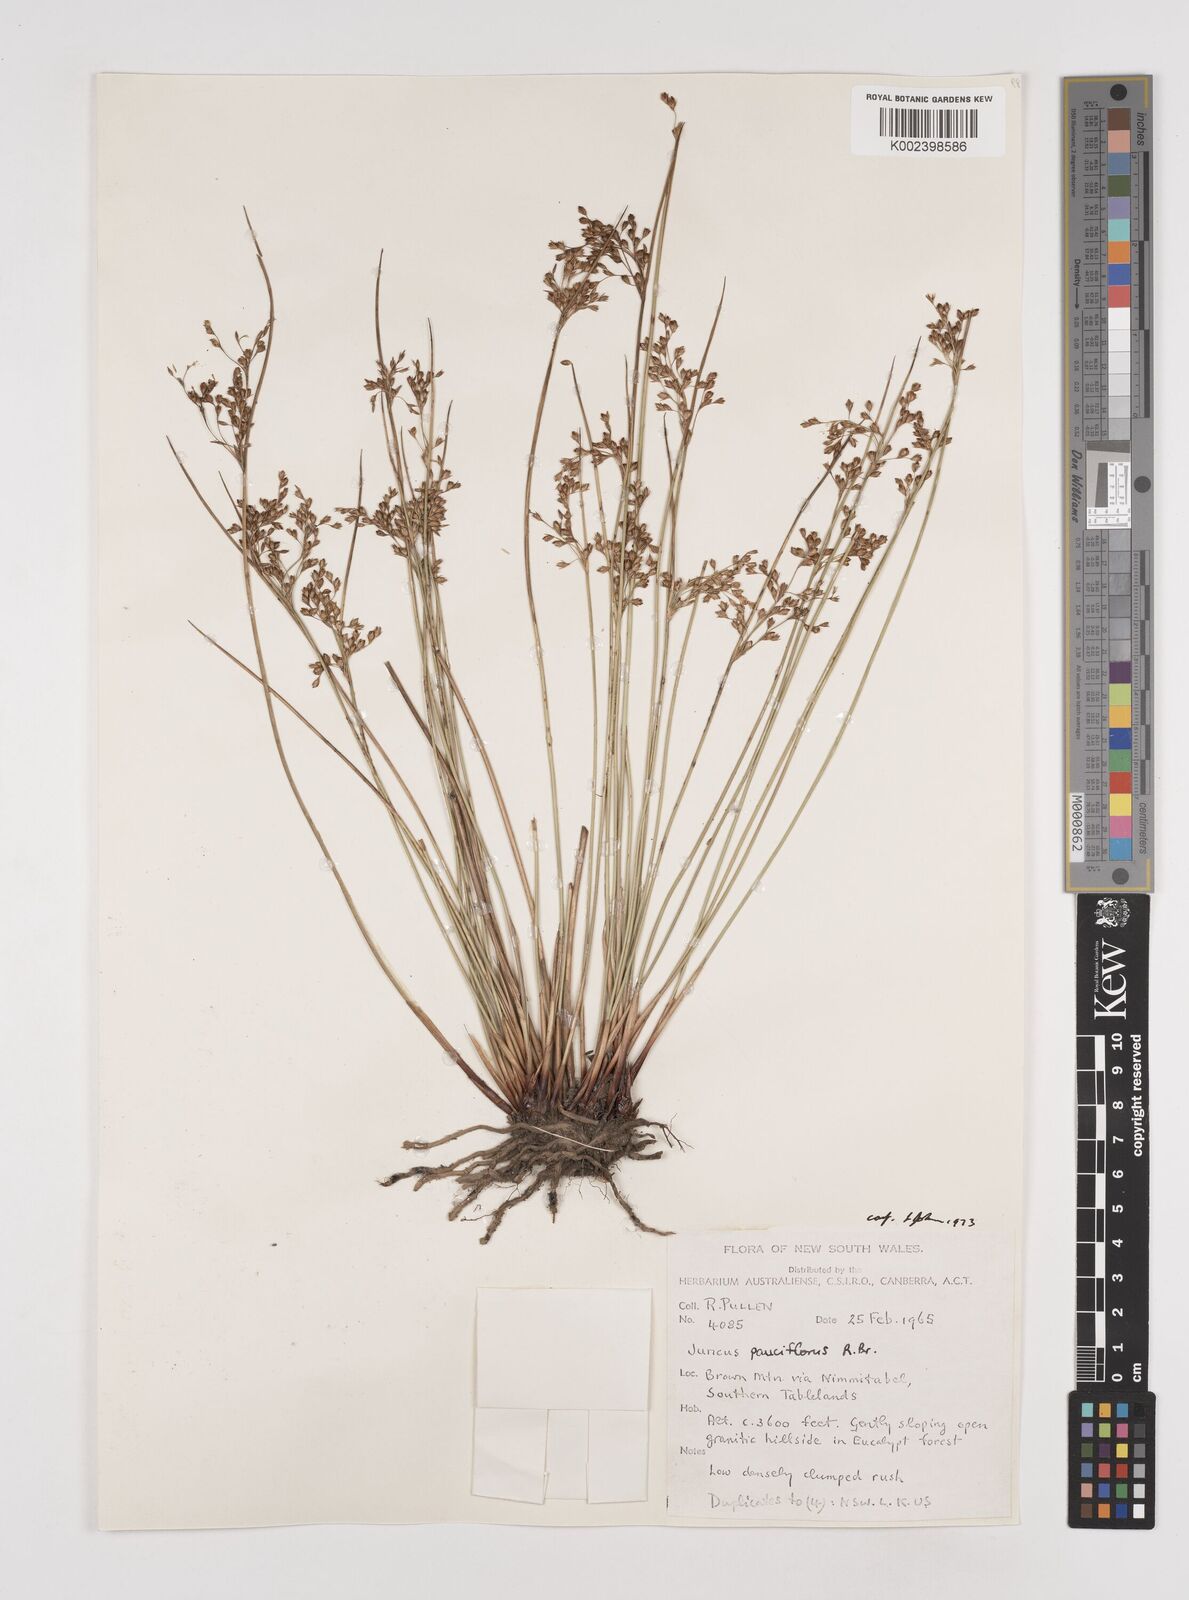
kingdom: Plantae
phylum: Tracheophyta
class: Liliopsida
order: Poales
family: Juncaceae
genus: Juncus
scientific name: Juncus pauciflorus
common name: Loose-flowered rush
